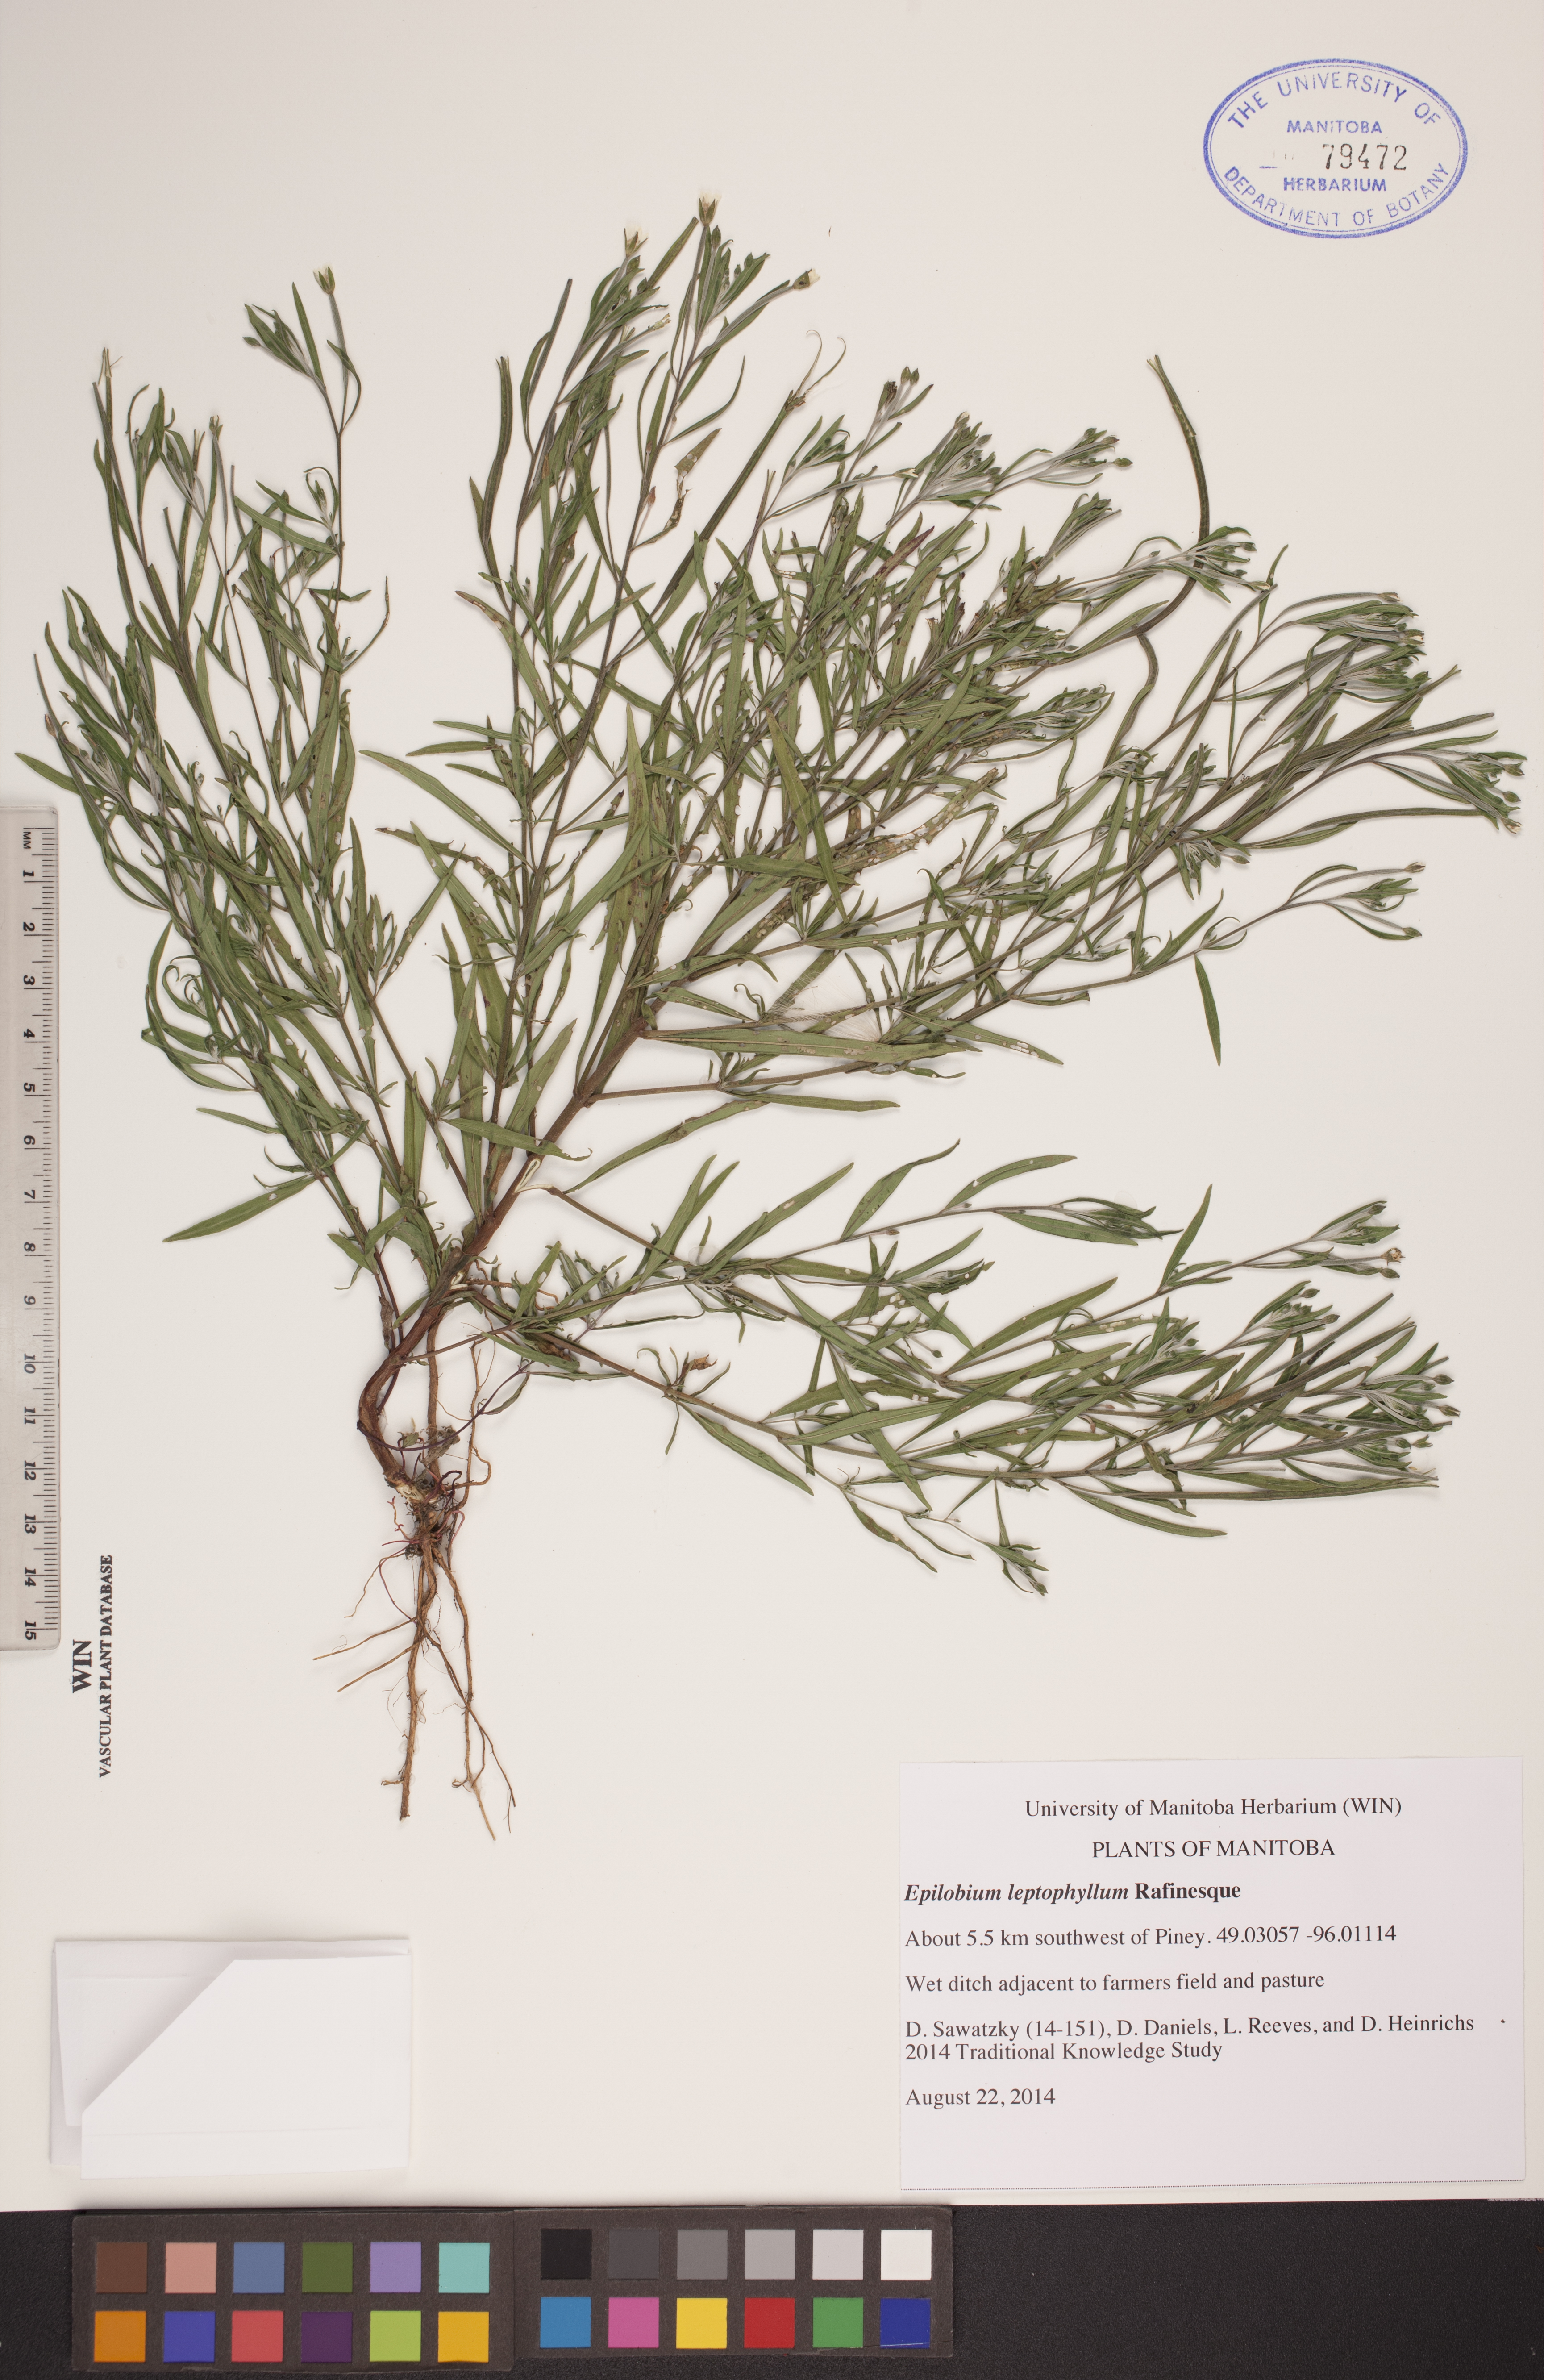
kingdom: Plantae
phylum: Tracheophyta
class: Magnoliopsida
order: Myrtales
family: Onagraceae
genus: Epilobium
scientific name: Epilobium leptophyllum
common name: Bog willowherb
